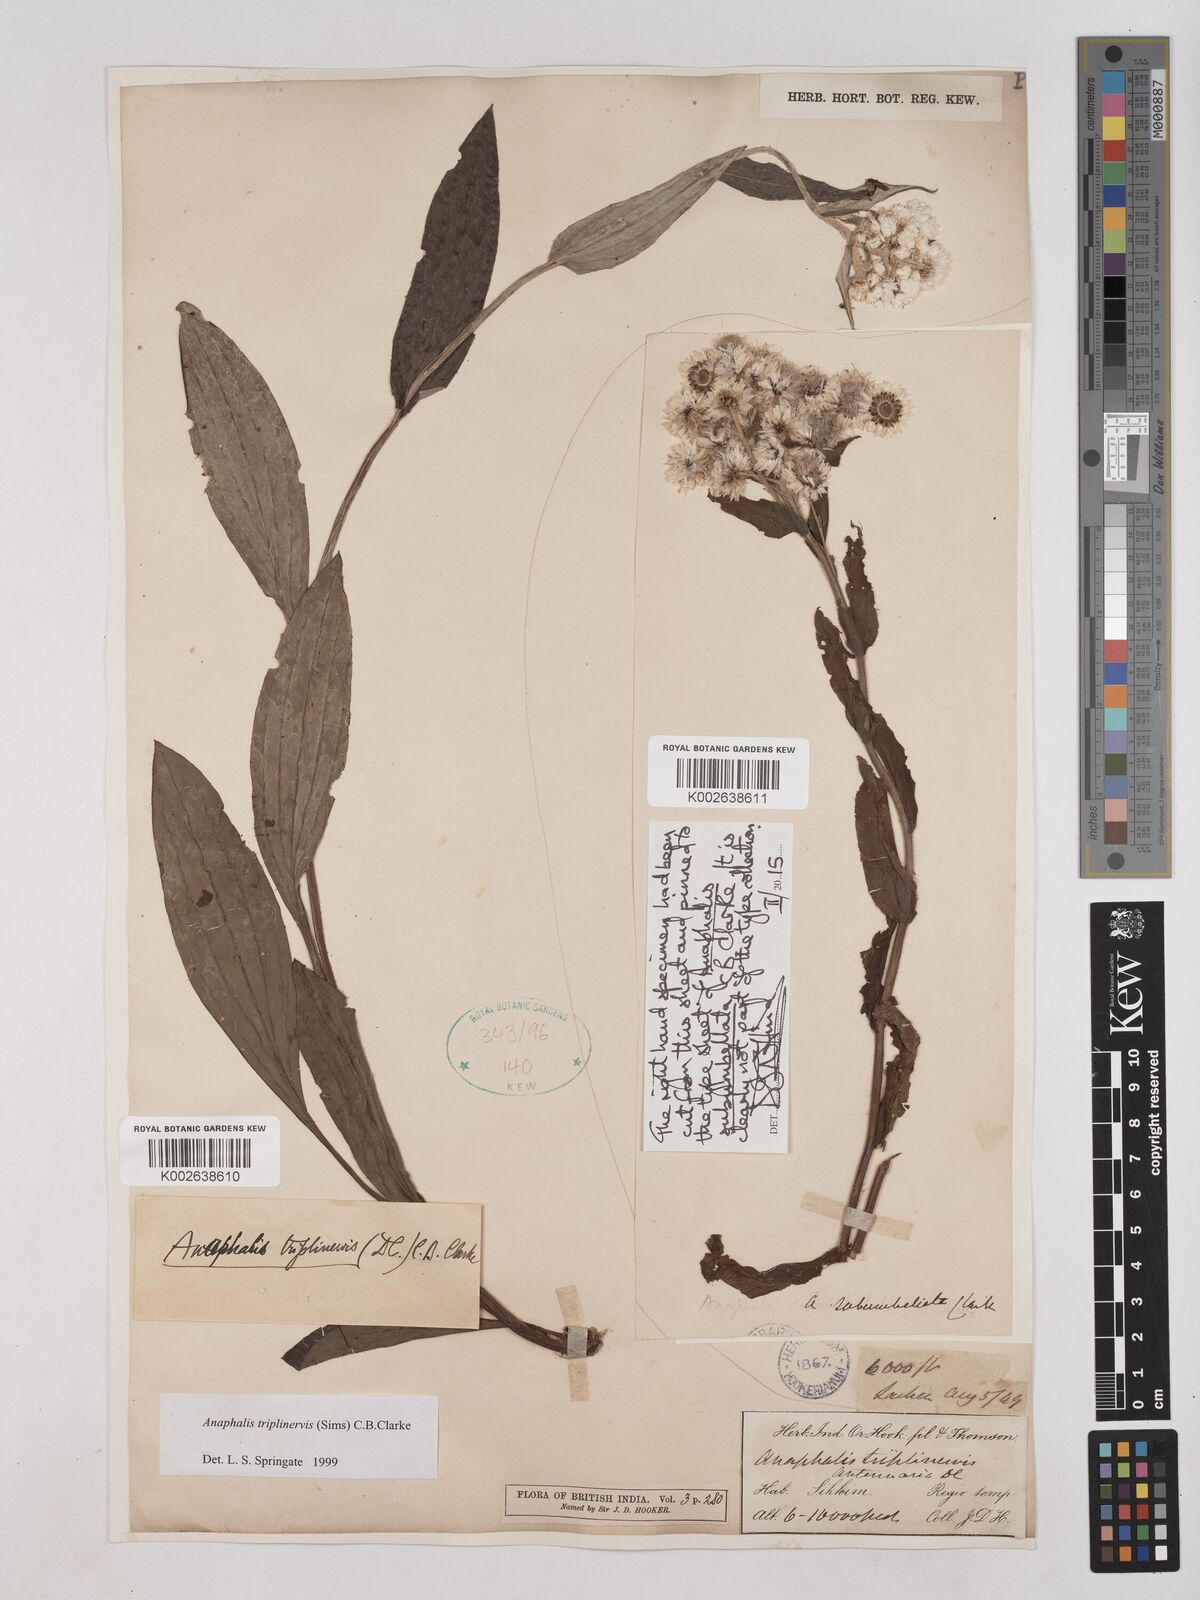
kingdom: Plantae
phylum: Tracheophyta
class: Magnoliopsida
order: Asterales
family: Asteraceae
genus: Anaphalis
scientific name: Anaphalis triplinervis
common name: Pearly everlasting
